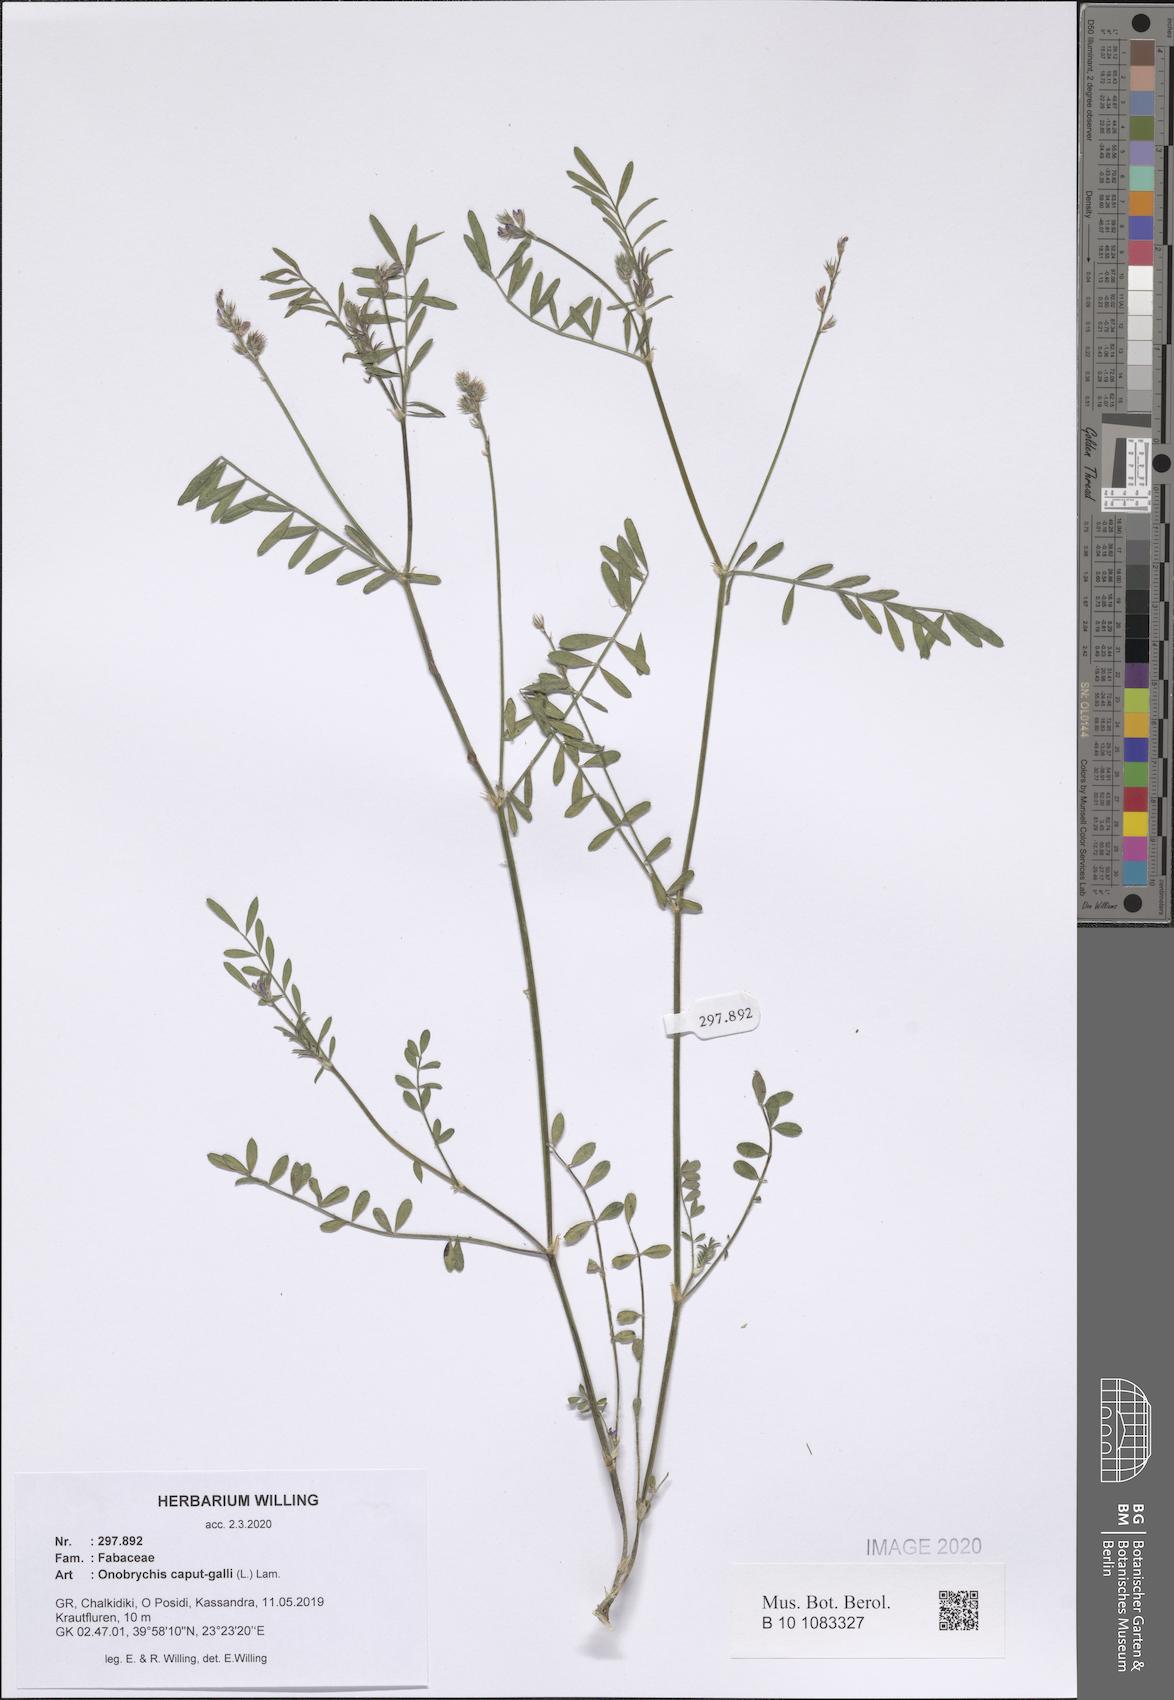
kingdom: Plantae
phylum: Tracheophyta
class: Magnoliopsida
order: Fabales
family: Fabaceae
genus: Onobrychis
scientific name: Onobrychis caput-galli
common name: Cockscomb sainfoin
